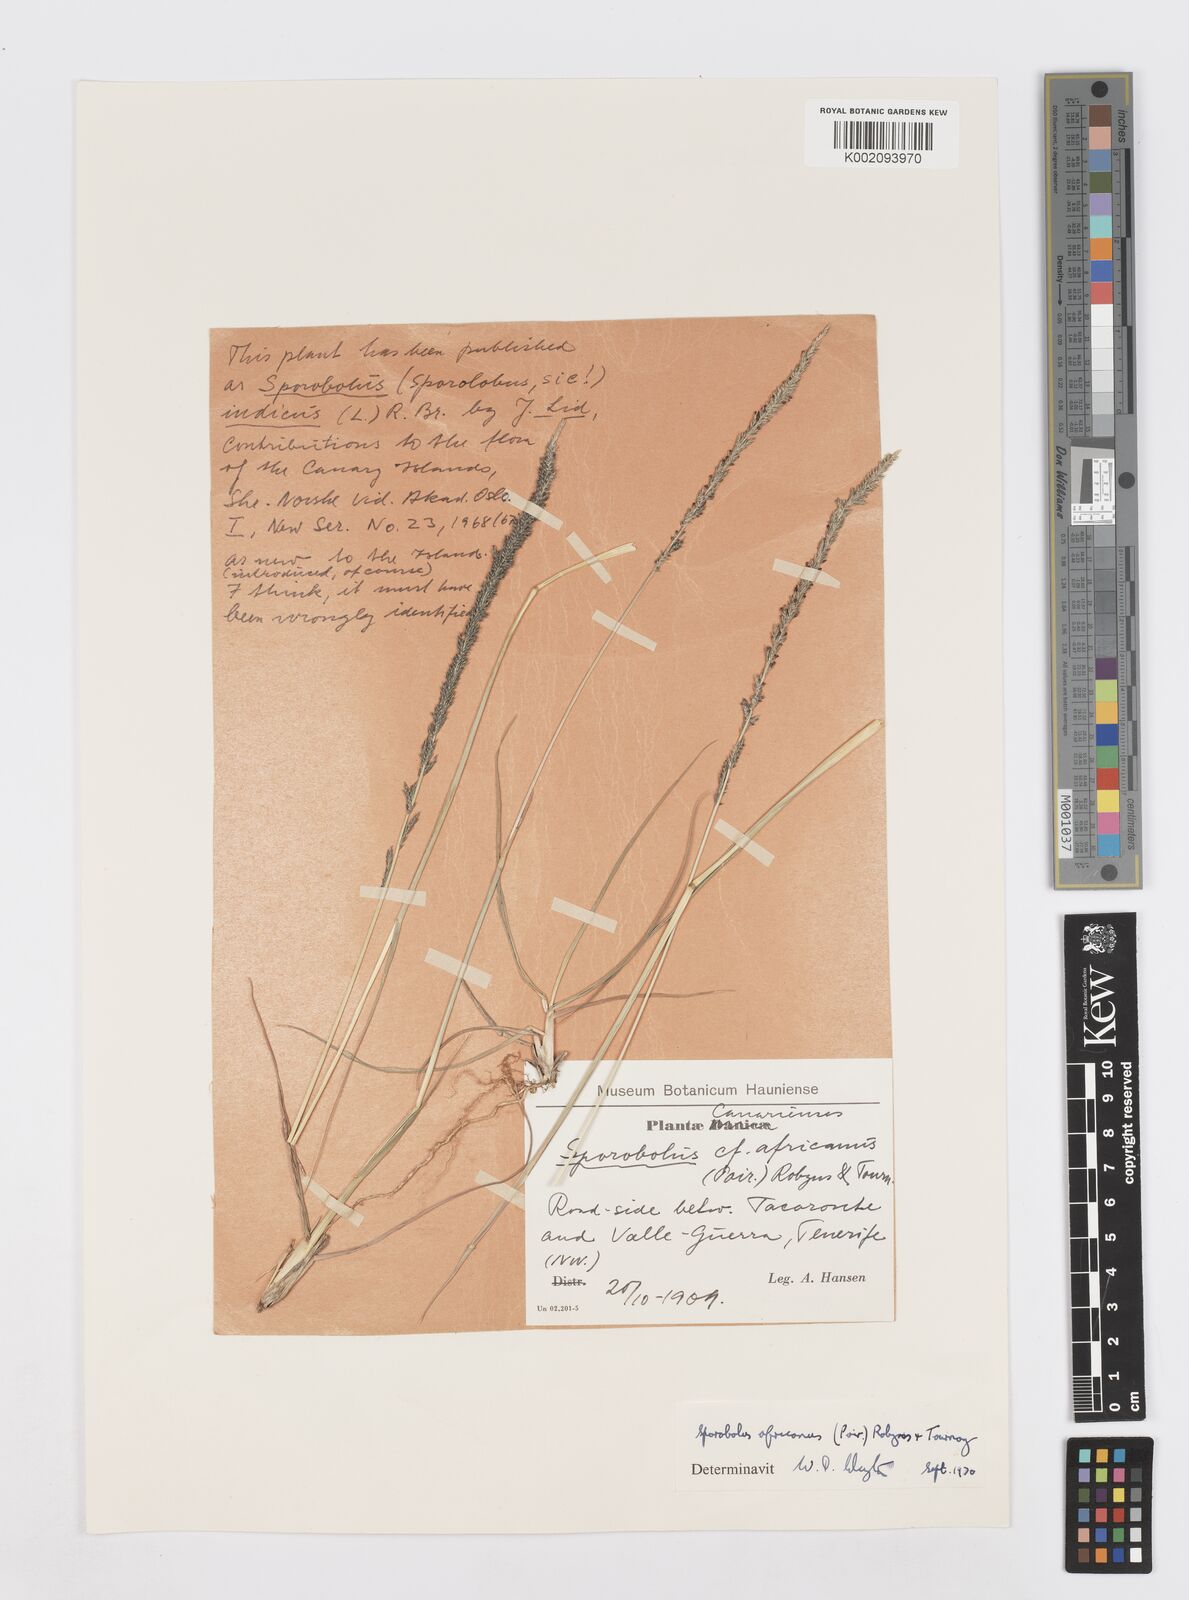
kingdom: Plantae
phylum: Tracheophyta
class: Liliopsida
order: Poales
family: Poaceae
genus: Sporobolus
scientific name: Sporobolus africanus
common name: African dropseed
